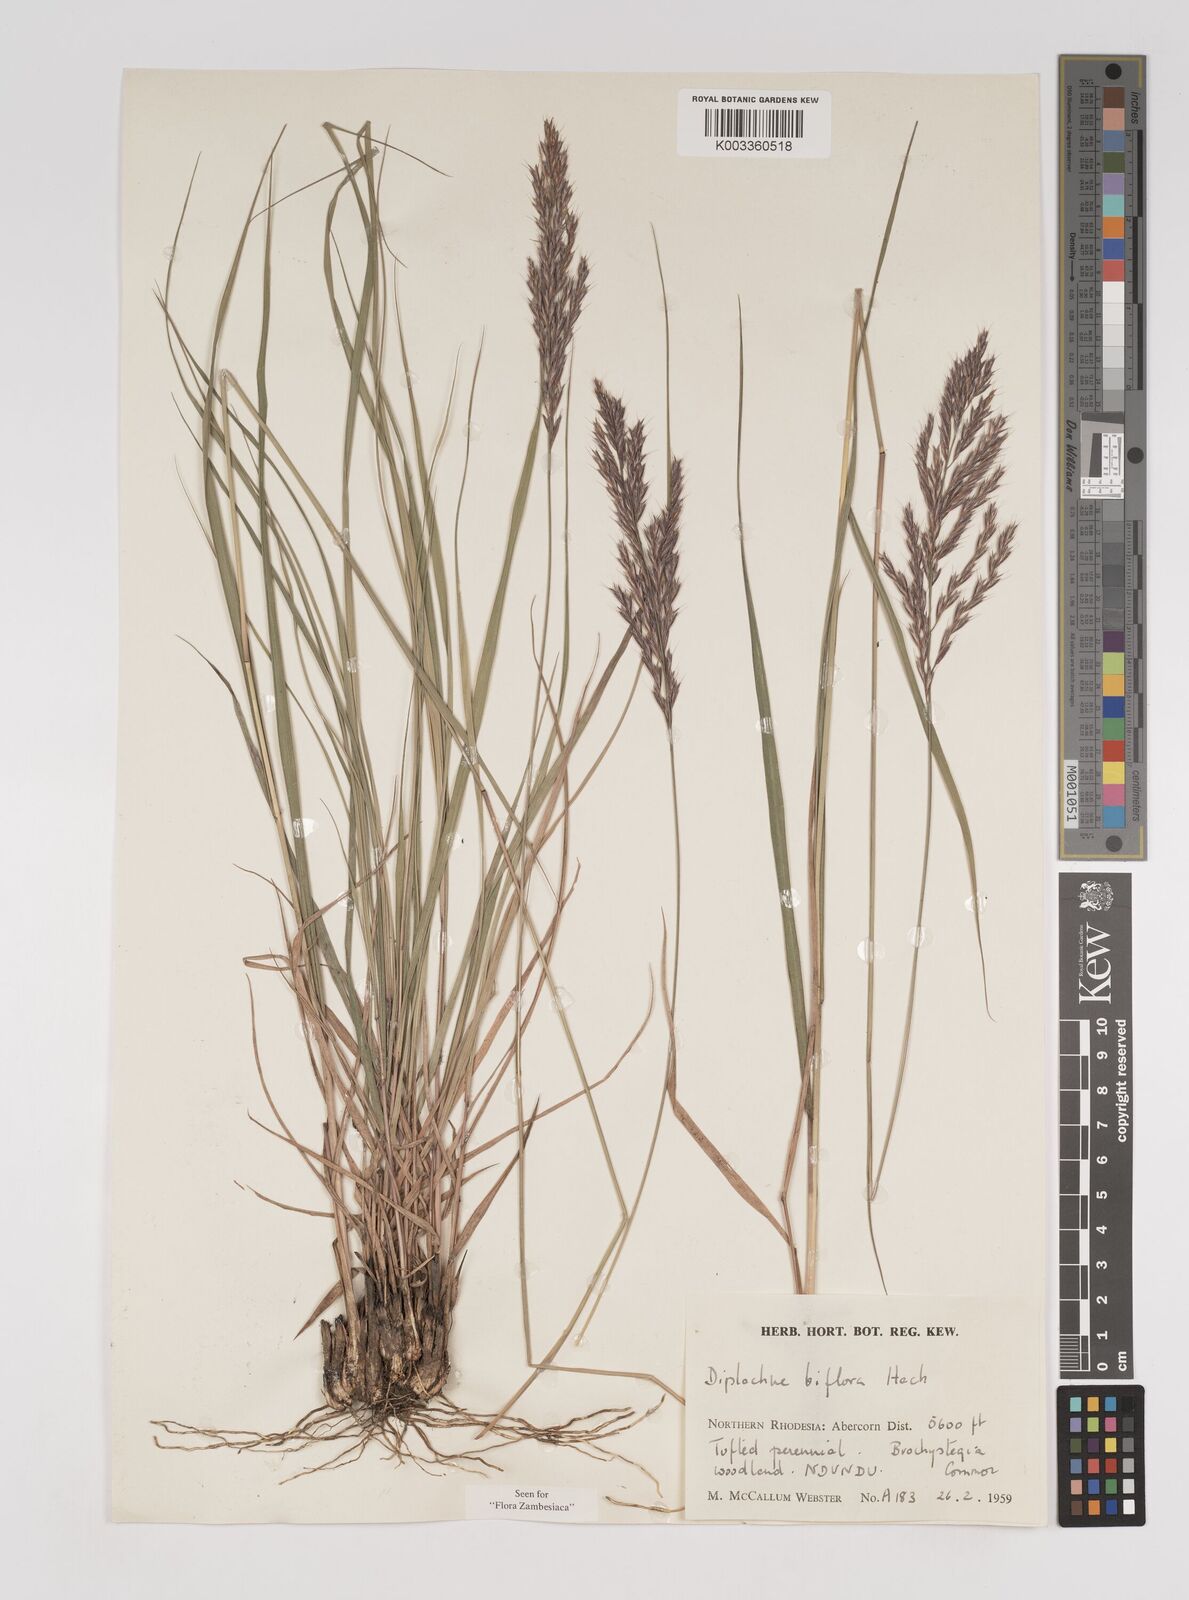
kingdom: Plantae
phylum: Tracheophyta
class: Liliopsida
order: Poales
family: Poaceae
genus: Bewsia
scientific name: Bewsia biflora
